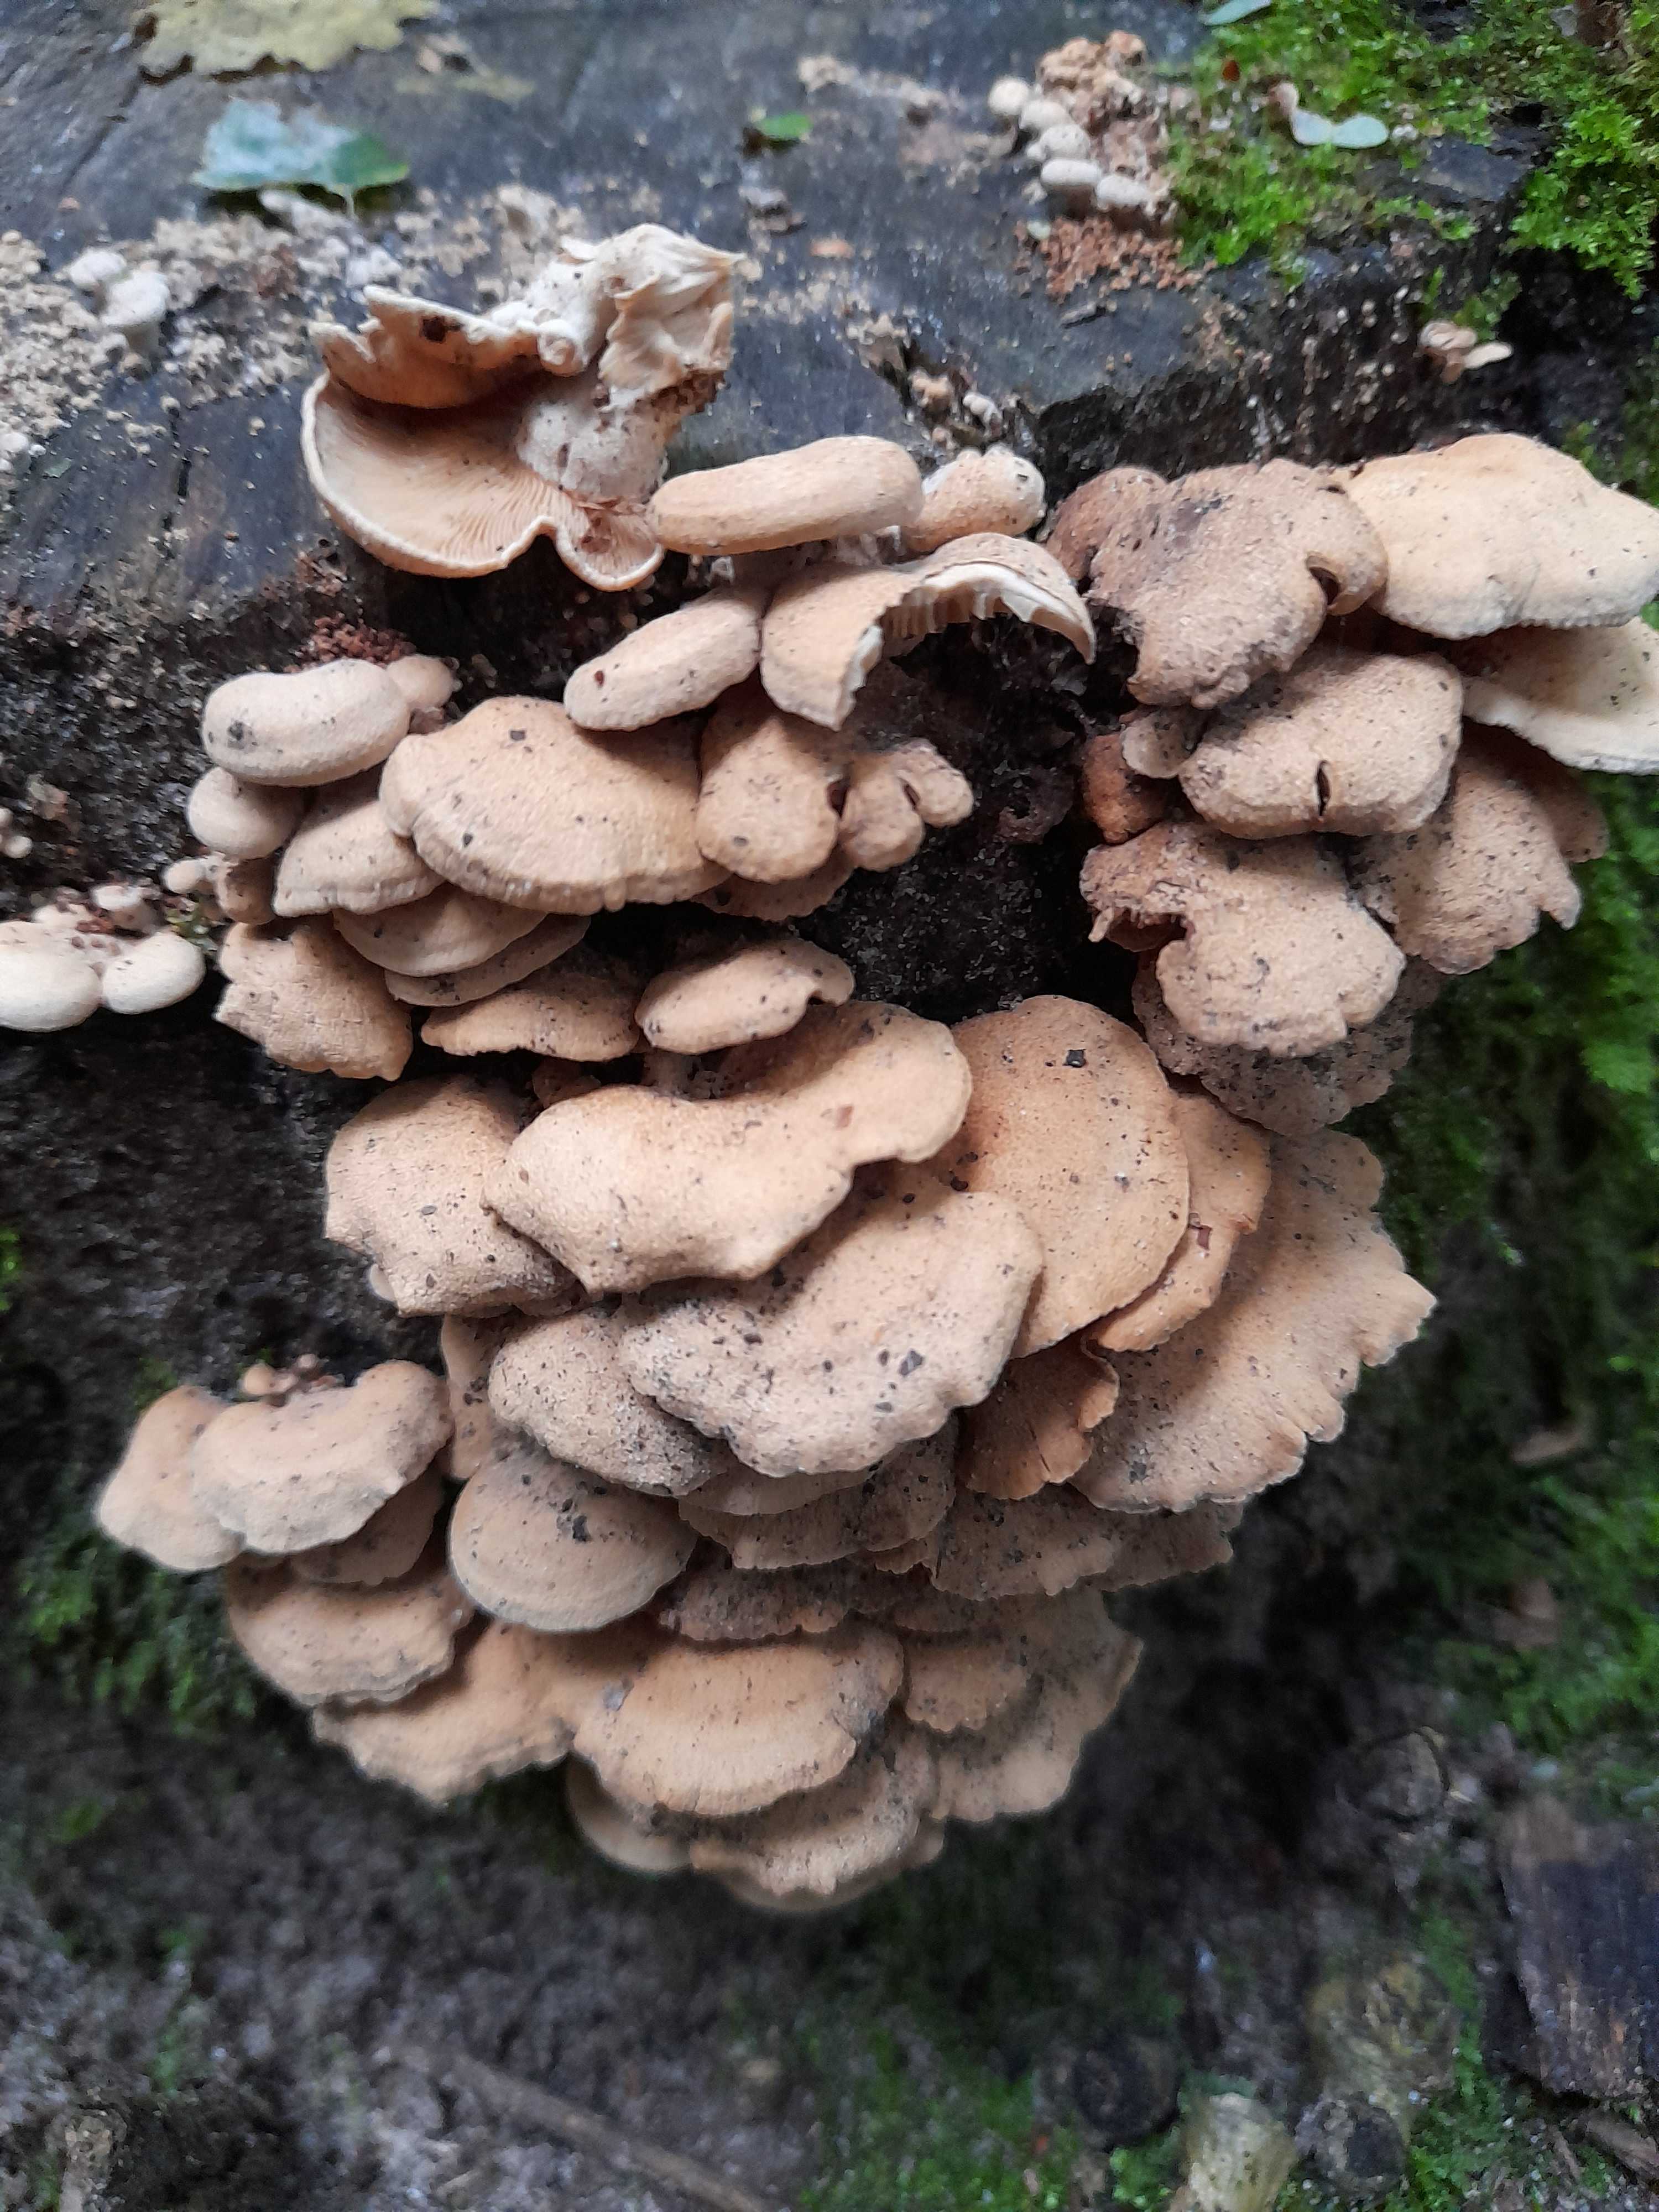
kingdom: Fungi
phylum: Basidiomycota
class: Agaricomycetes
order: Agaricales
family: Mycenaceae
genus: Panellus
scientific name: Panellus stipticus
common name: kliddet epaulethat
